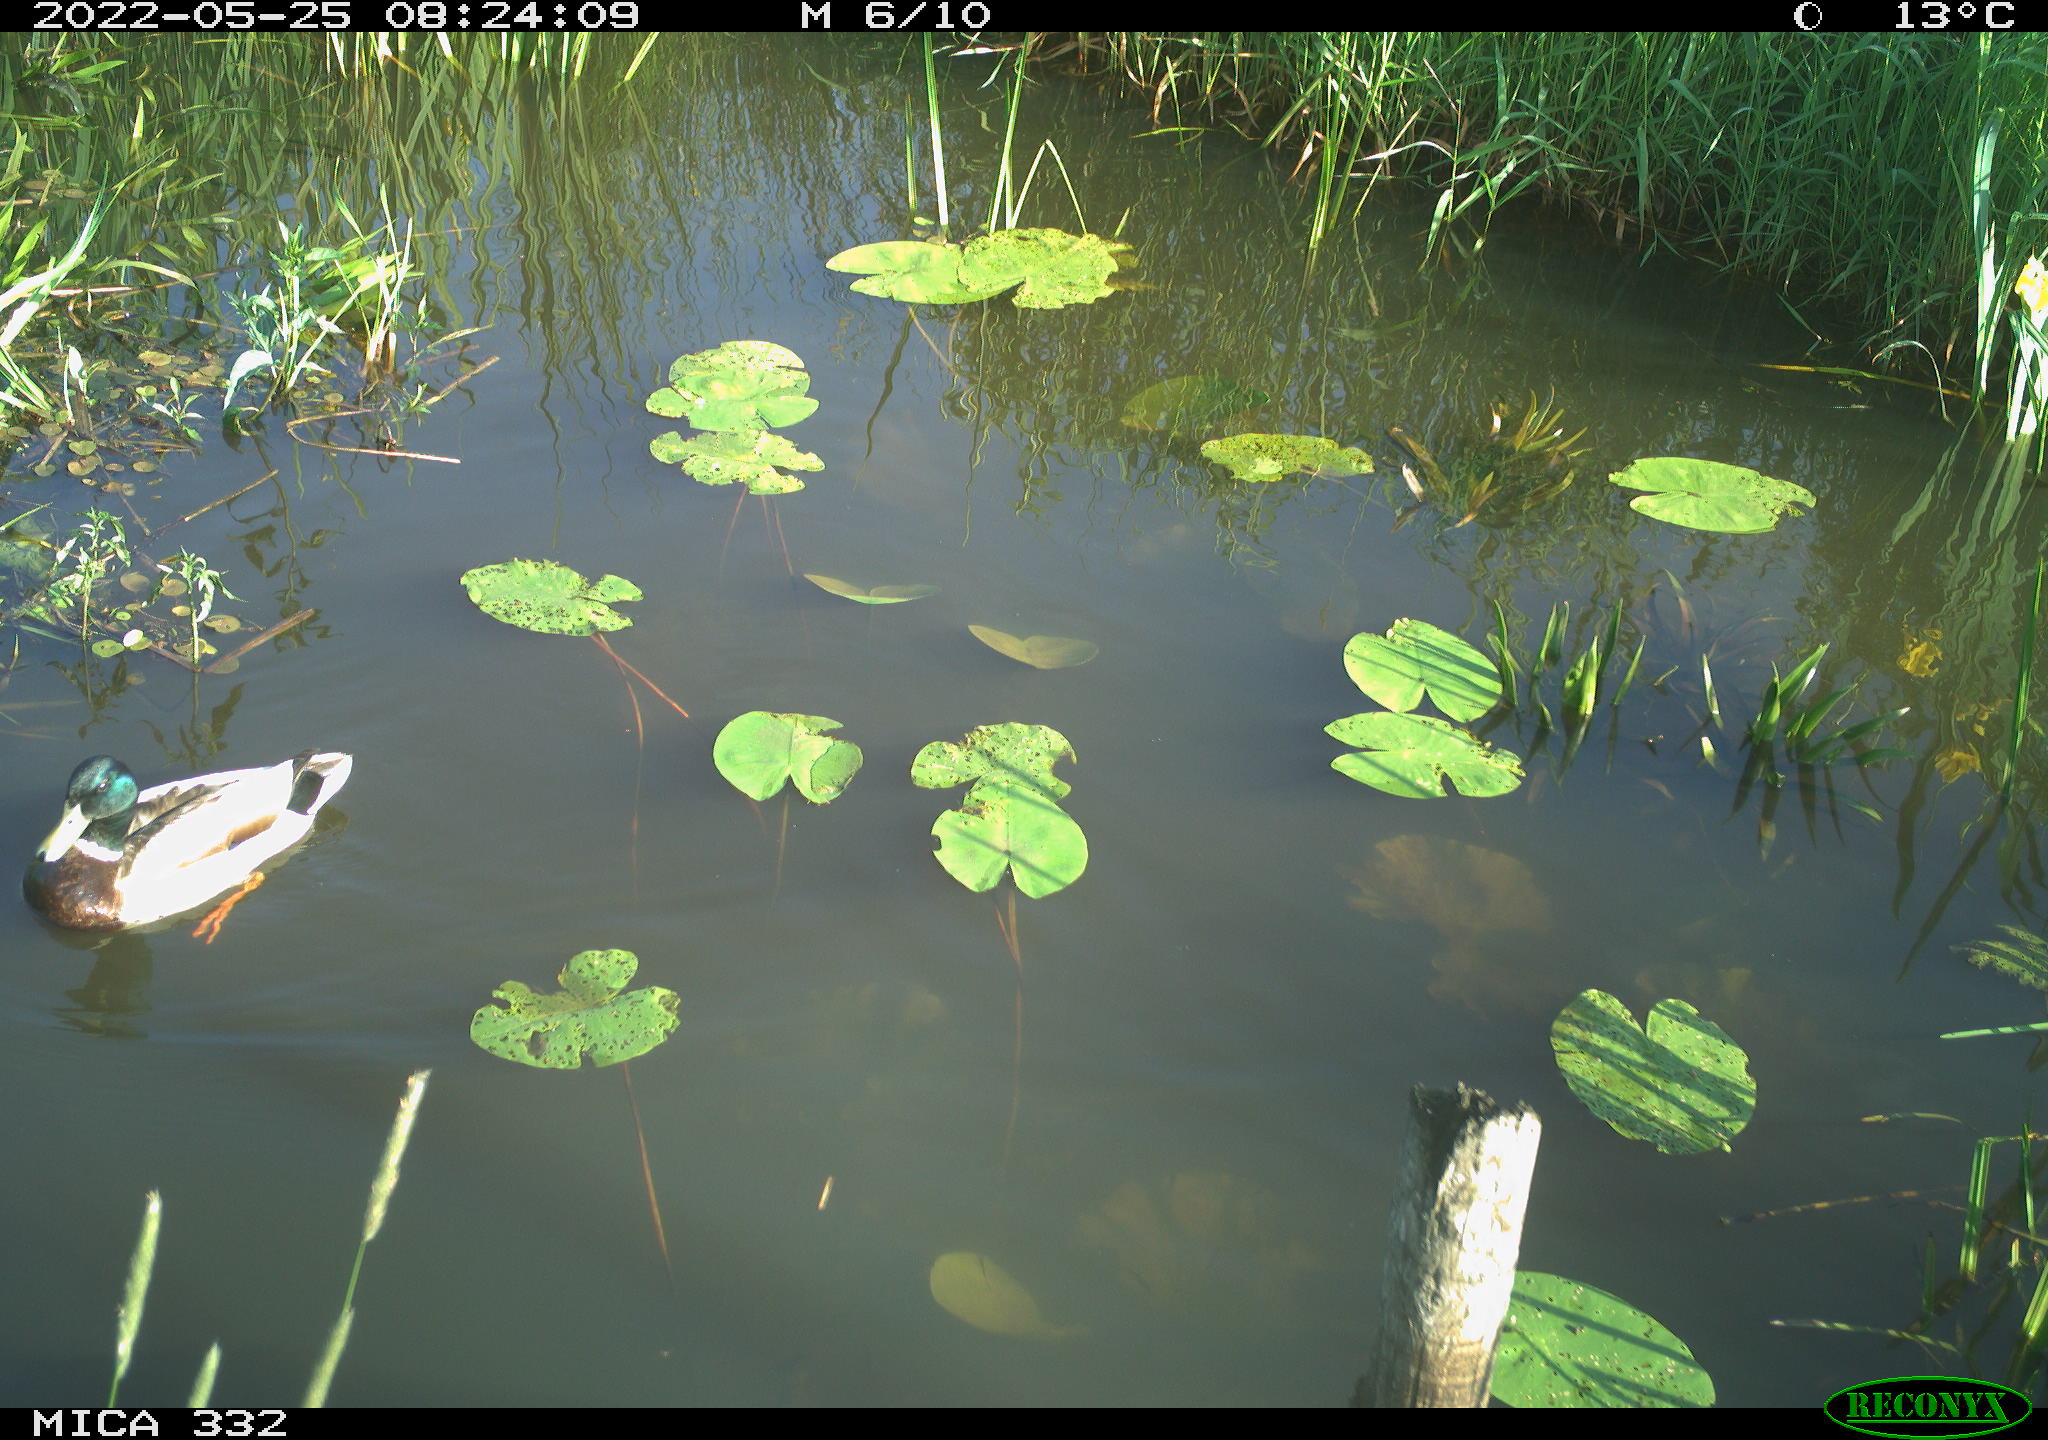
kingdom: Animalia
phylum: Chordata
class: Aves
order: Anseriformes
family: Anatidae
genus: Anas
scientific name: Anas platyrhynchos
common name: Mallard
